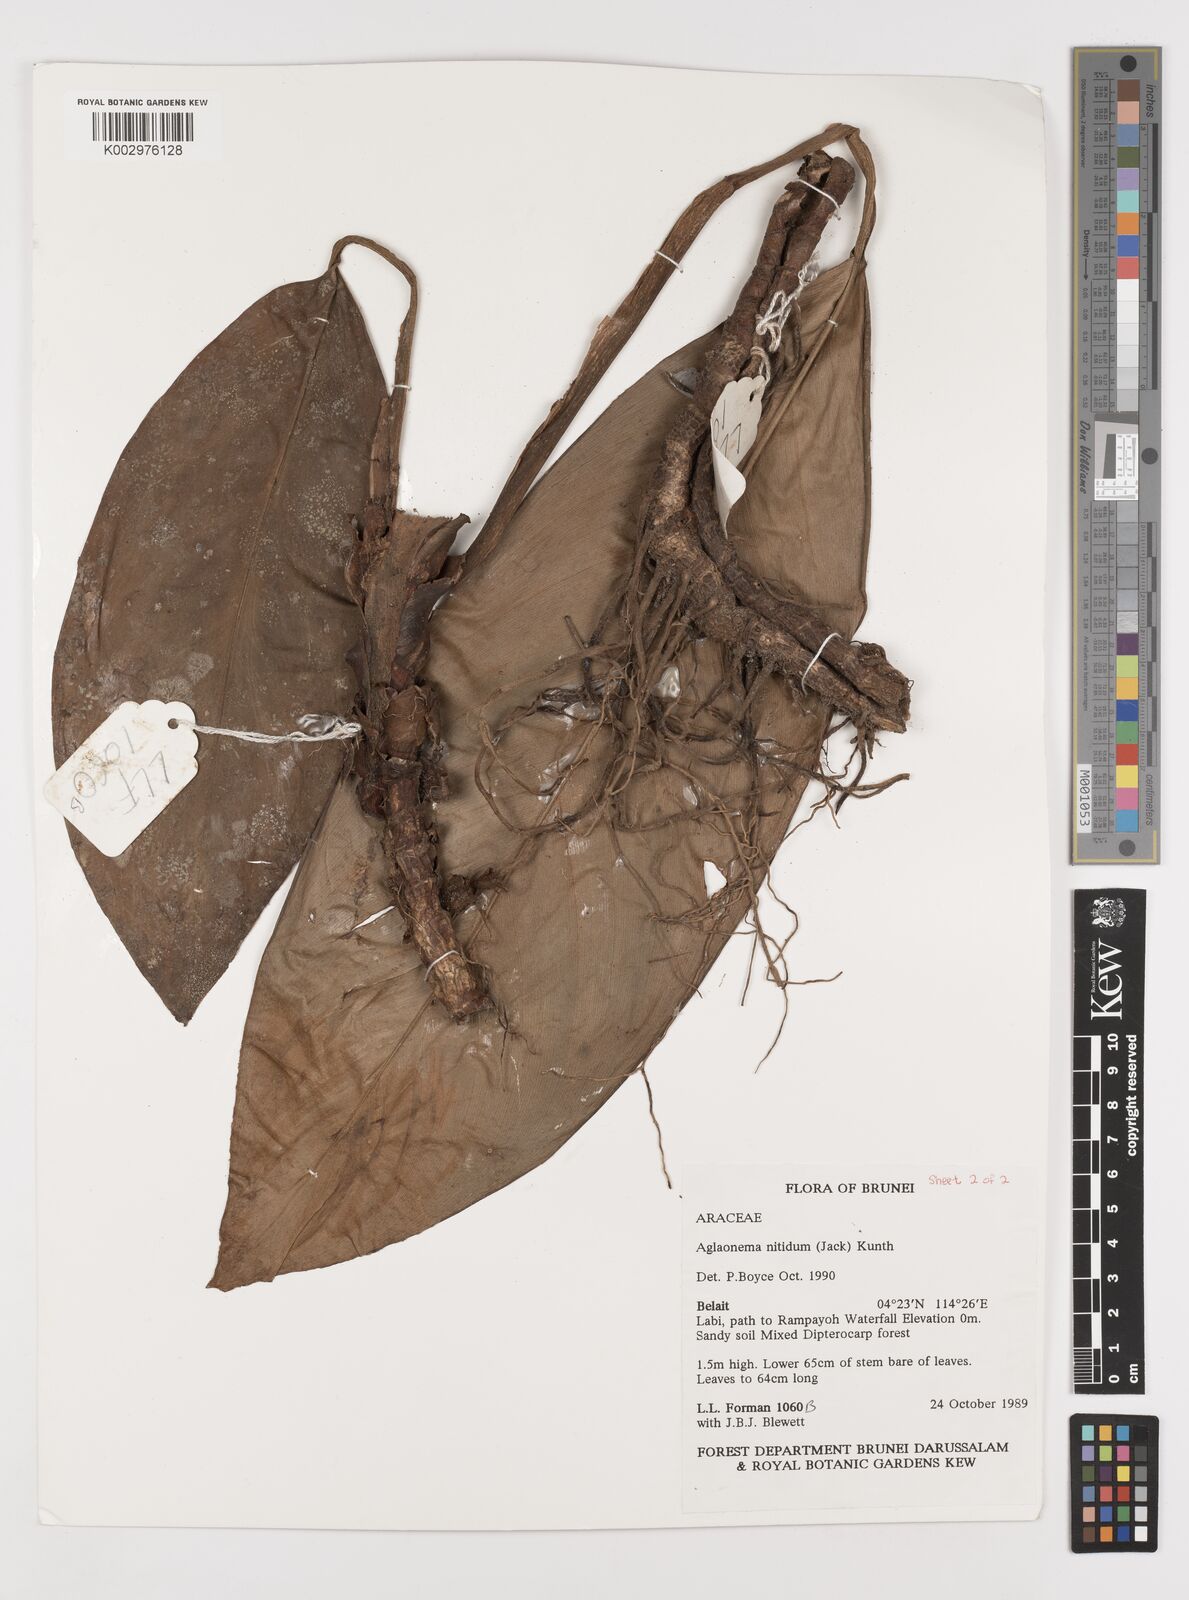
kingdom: Plantae
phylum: Tracheophyta
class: Liliopsida
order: Alismatales
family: Araceae
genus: Aglaonema
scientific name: Aglaonema nitidum
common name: Aglaonema aroid
